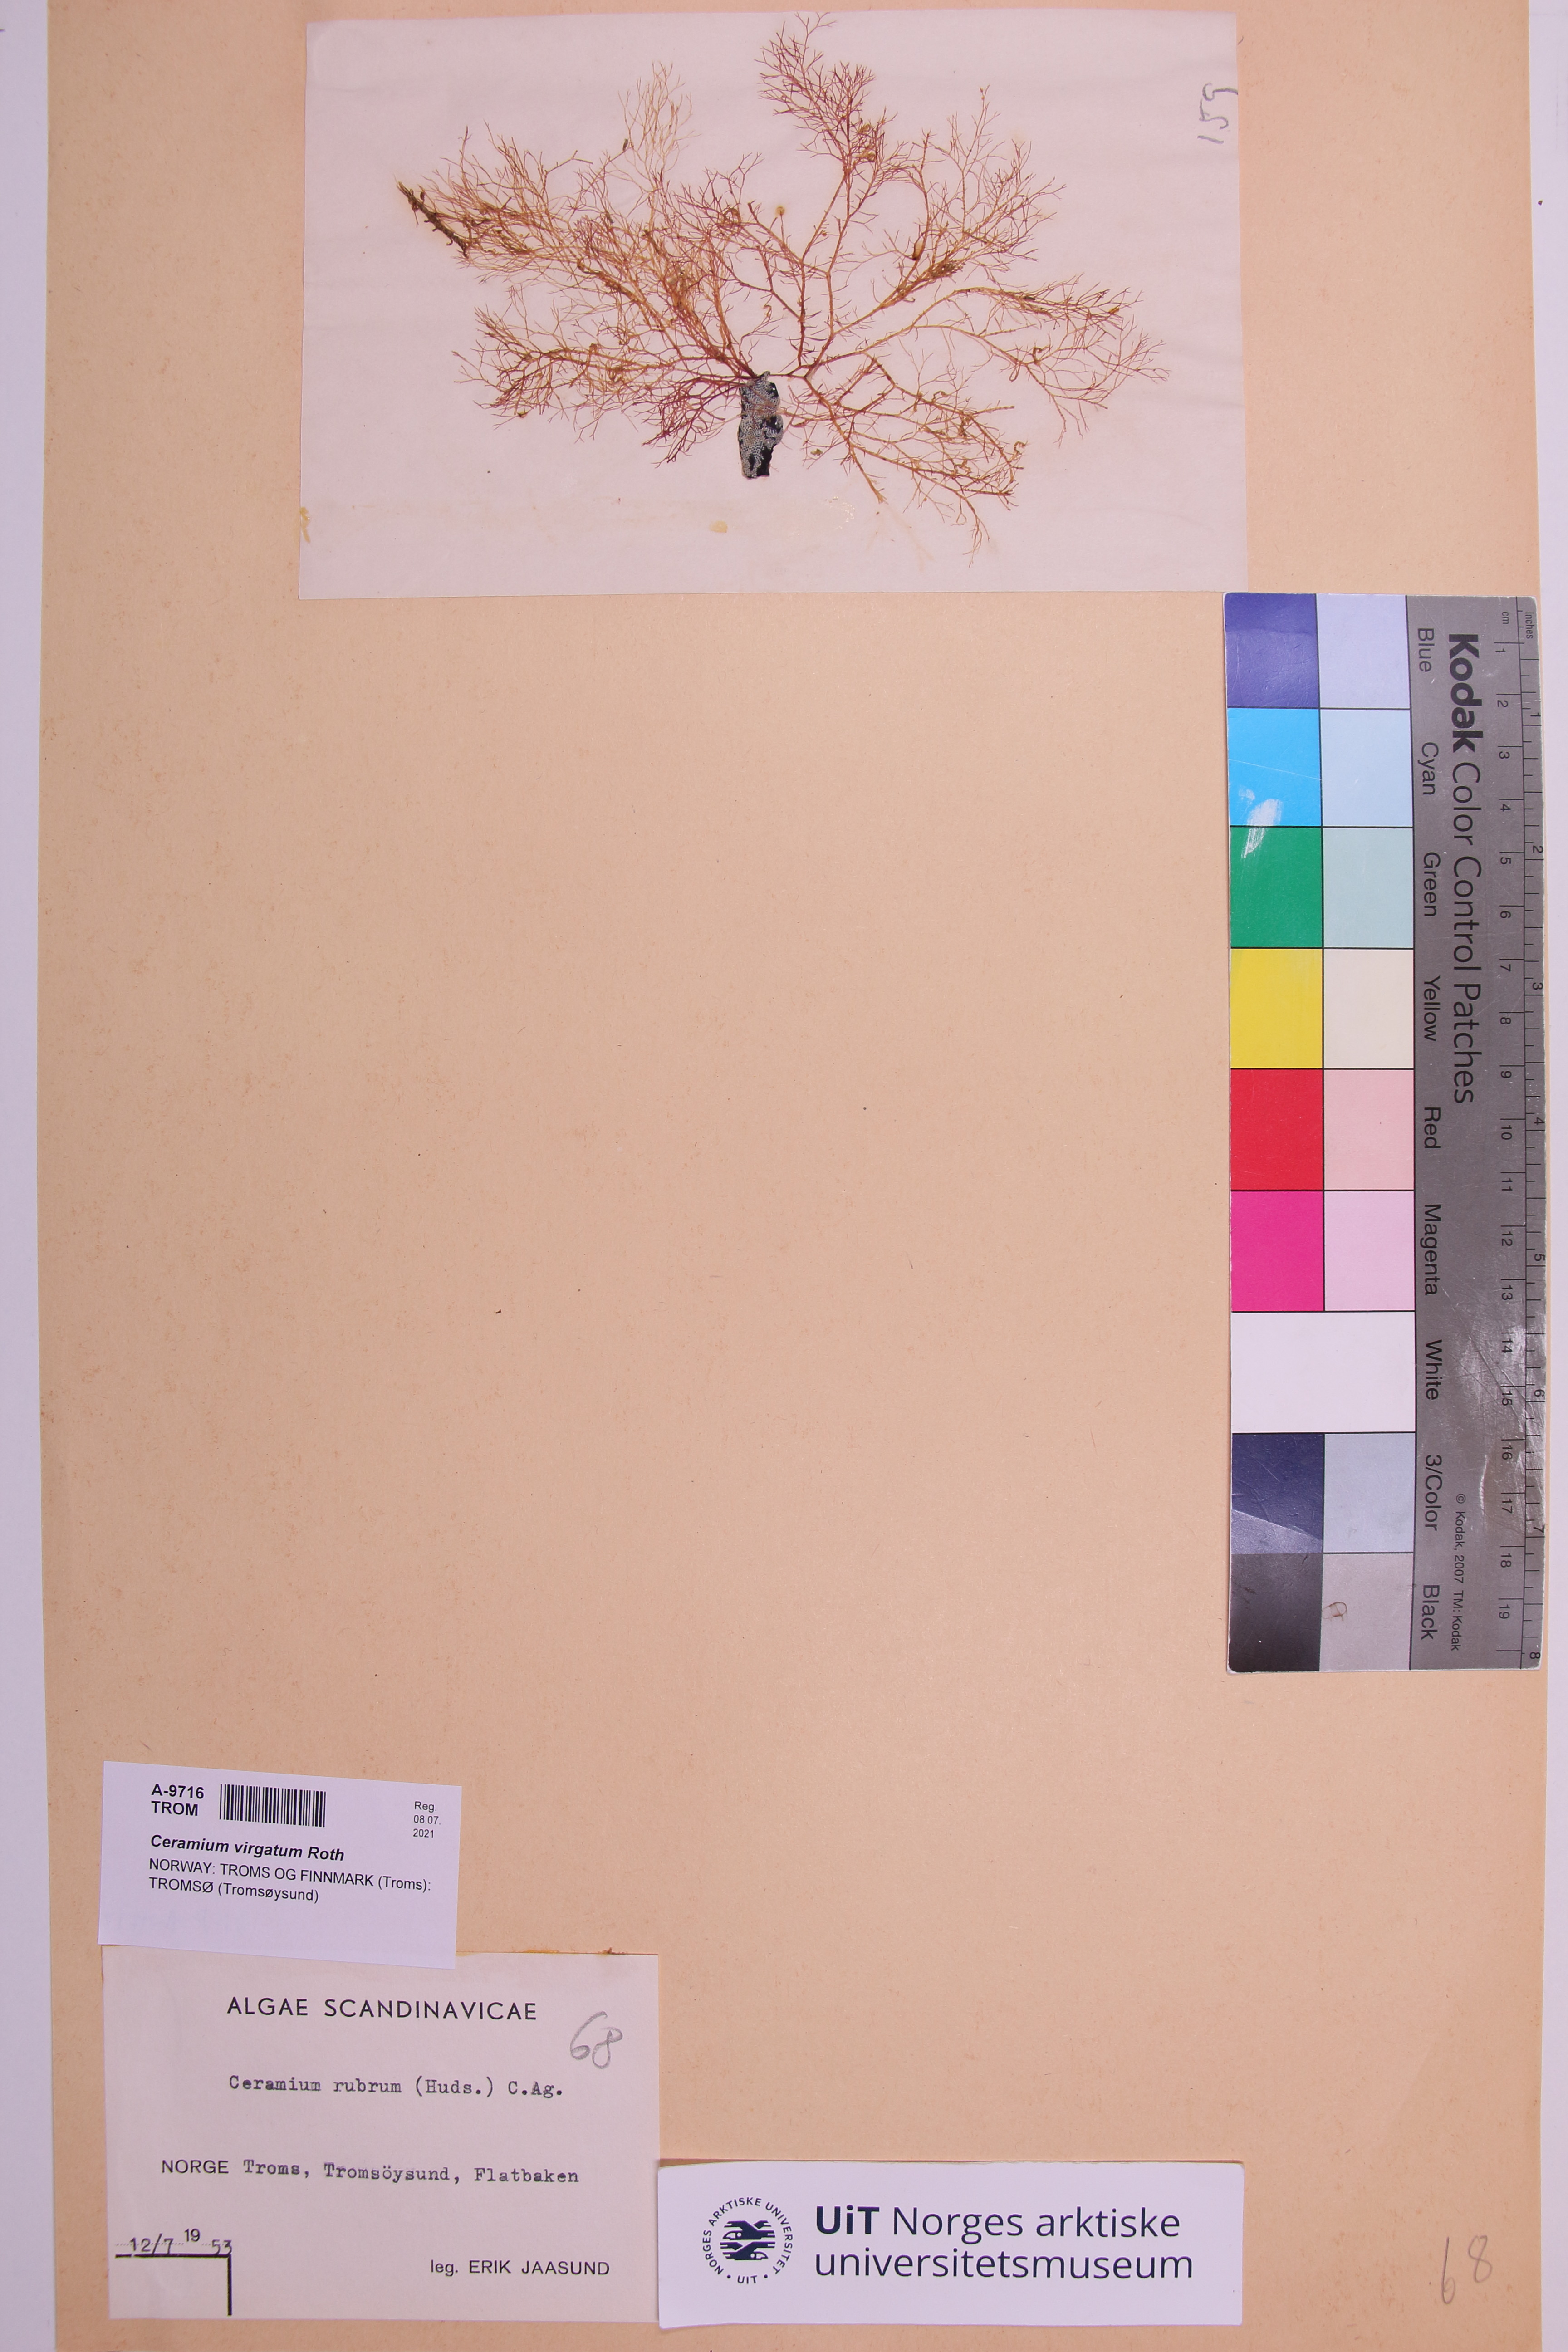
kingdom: Plantae
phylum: Rhodophyta
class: Florideophyceae
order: Ceramiales
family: Ceramiaceae
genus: Ceramium
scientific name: Ceramium virgatum
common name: Red hornweed
